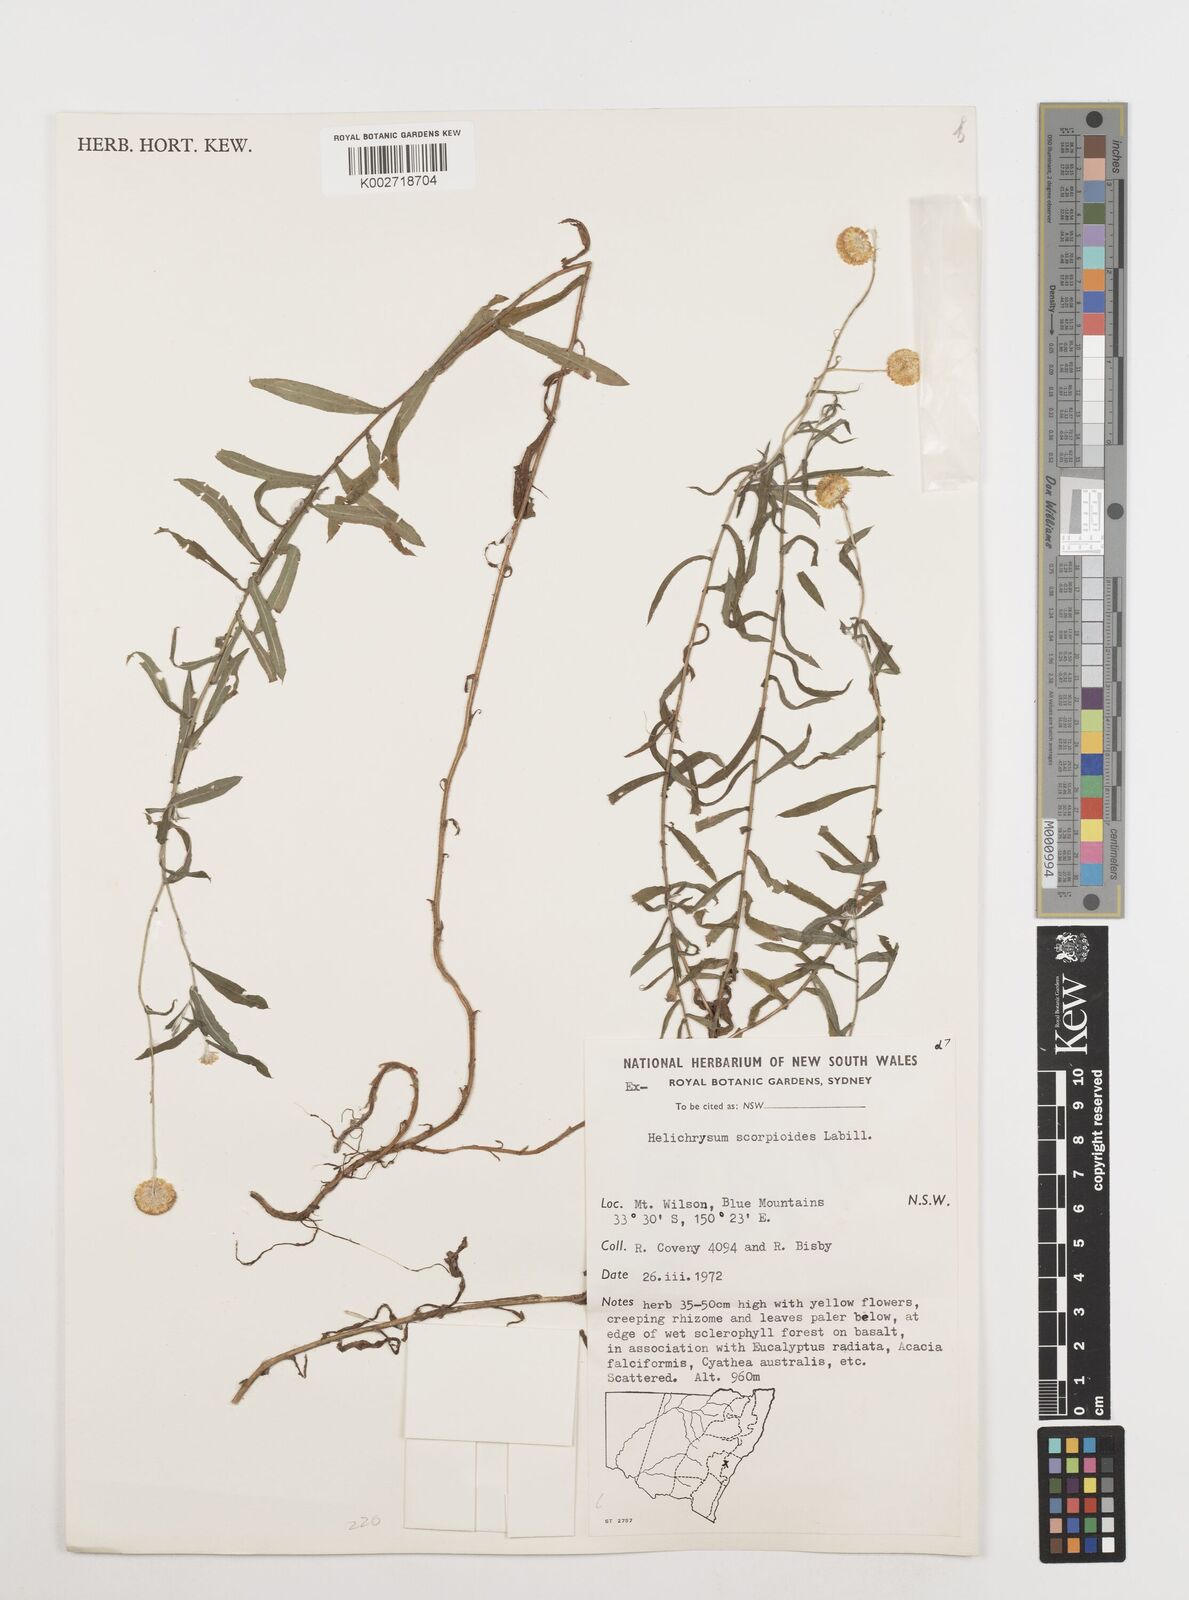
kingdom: Plantae
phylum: Tracheophyta
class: Magnoliopsida
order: Asterales
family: Asteraceae
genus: Coronidium
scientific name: Coronidium scorpioides
